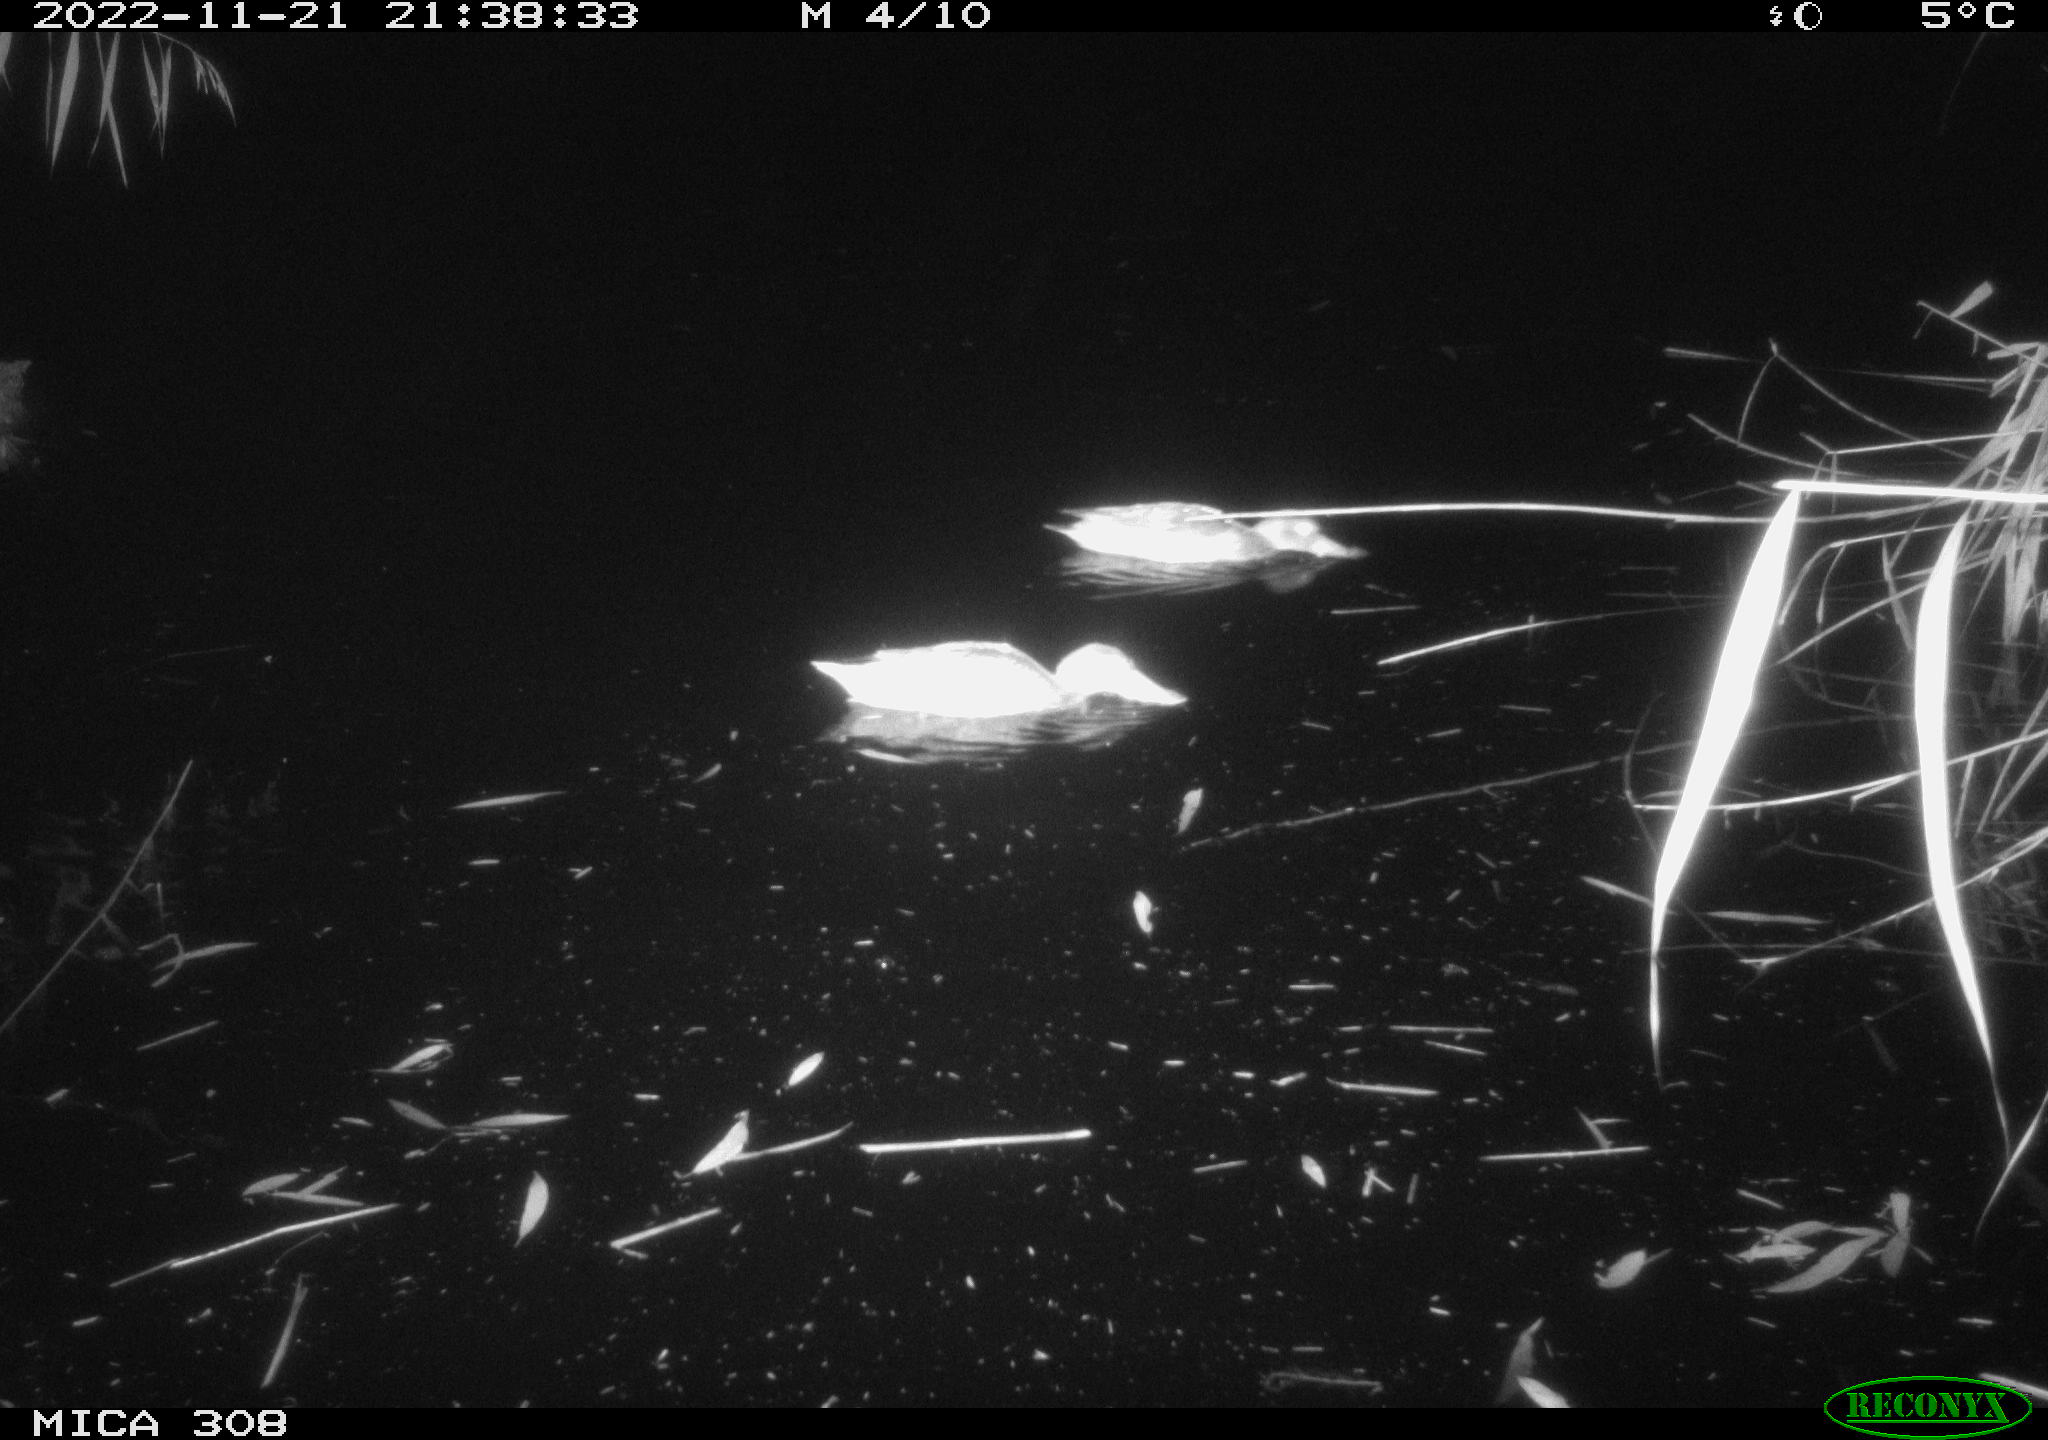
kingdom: Animalia
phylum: Chordata
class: Aves
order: Anseriformes
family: Anatidae
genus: Anas
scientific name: Anas
